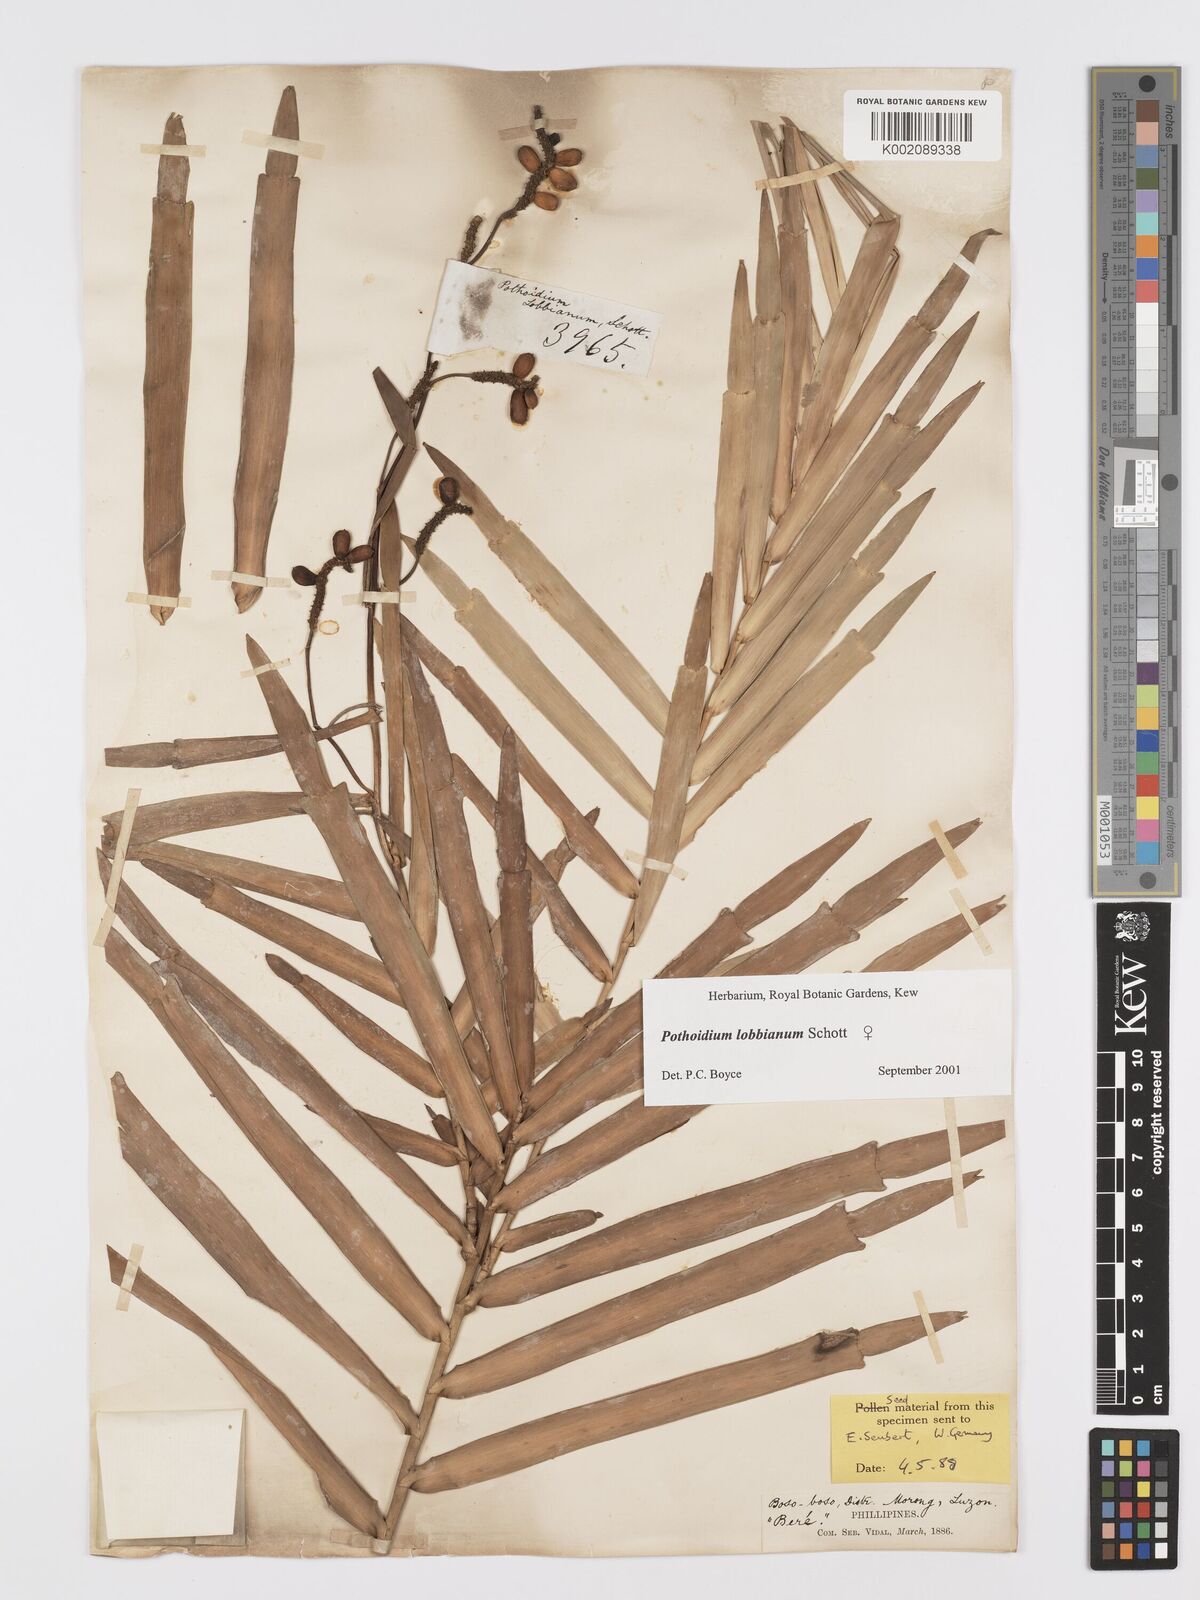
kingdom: Plantae
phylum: Tracheophyta
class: Liliopsida
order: Alismatales
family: Araceae
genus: Pothoidium
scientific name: Pothoidium lobbianum
